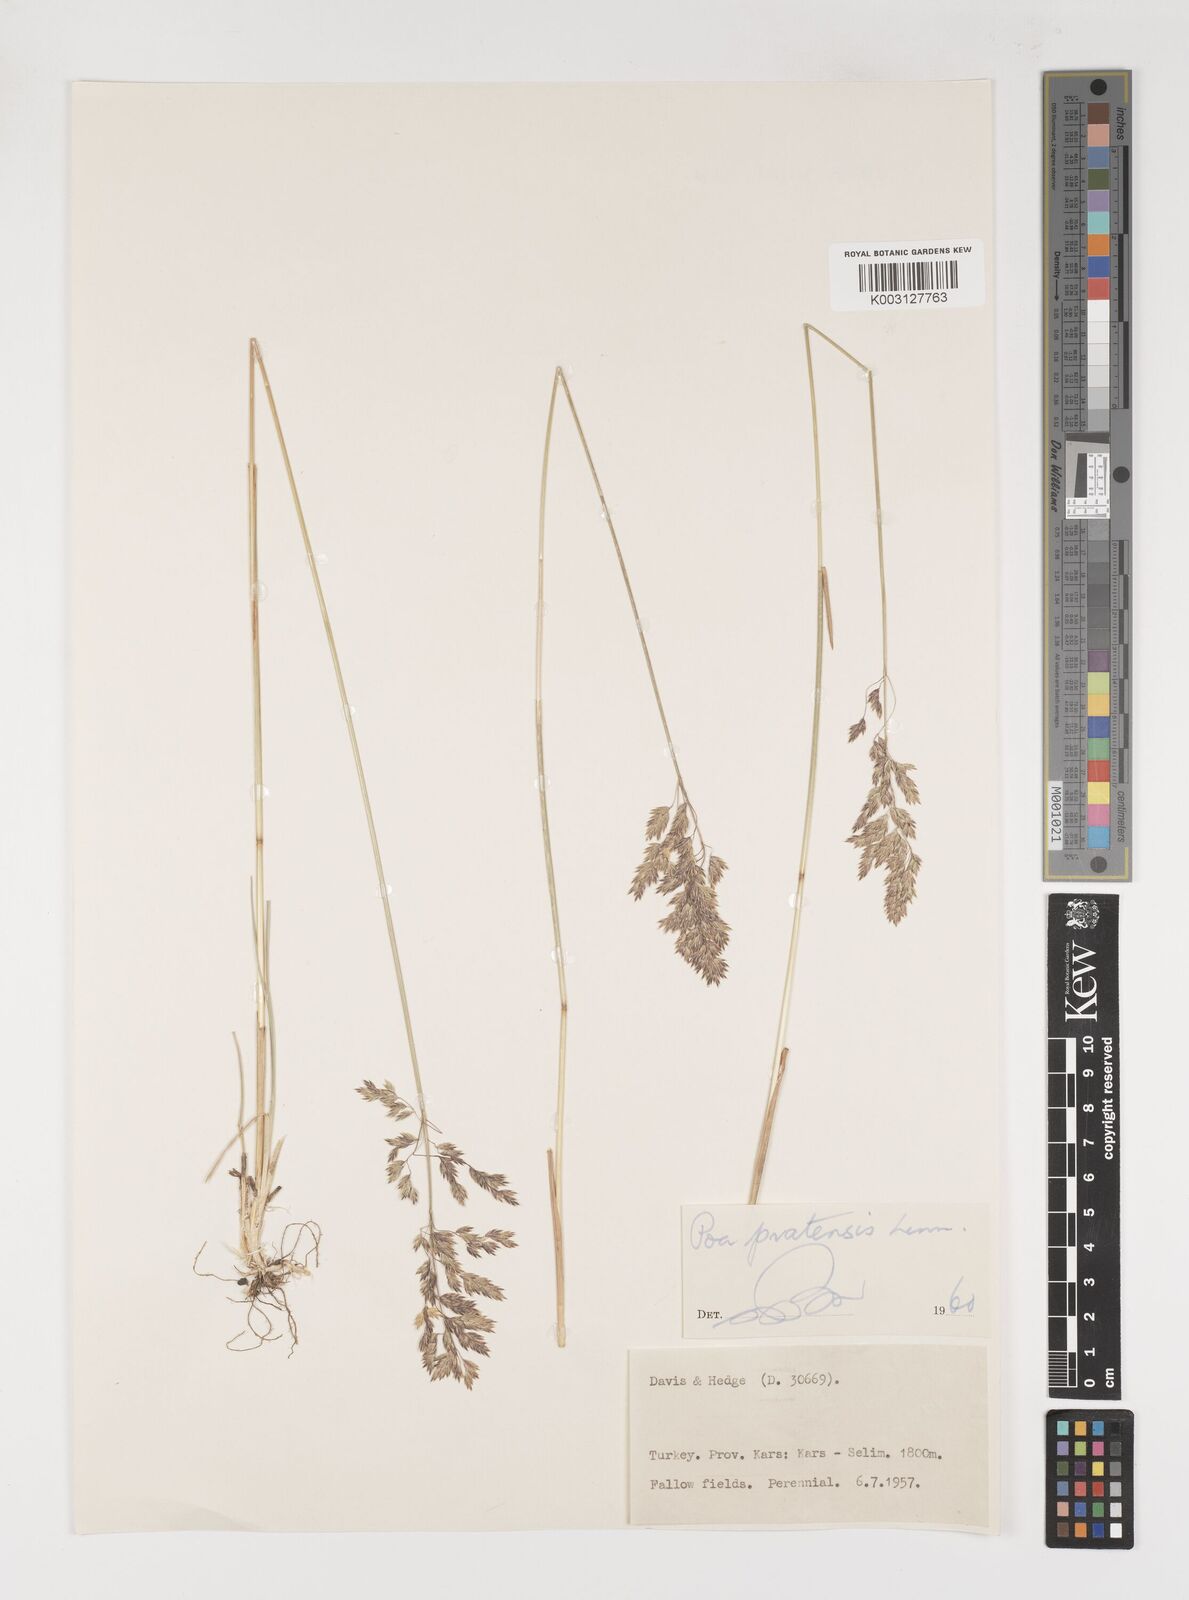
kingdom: Plantae
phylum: Tracheophyta
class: Liliopsida
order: Poales
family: Poaceae
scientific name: Poaceae
